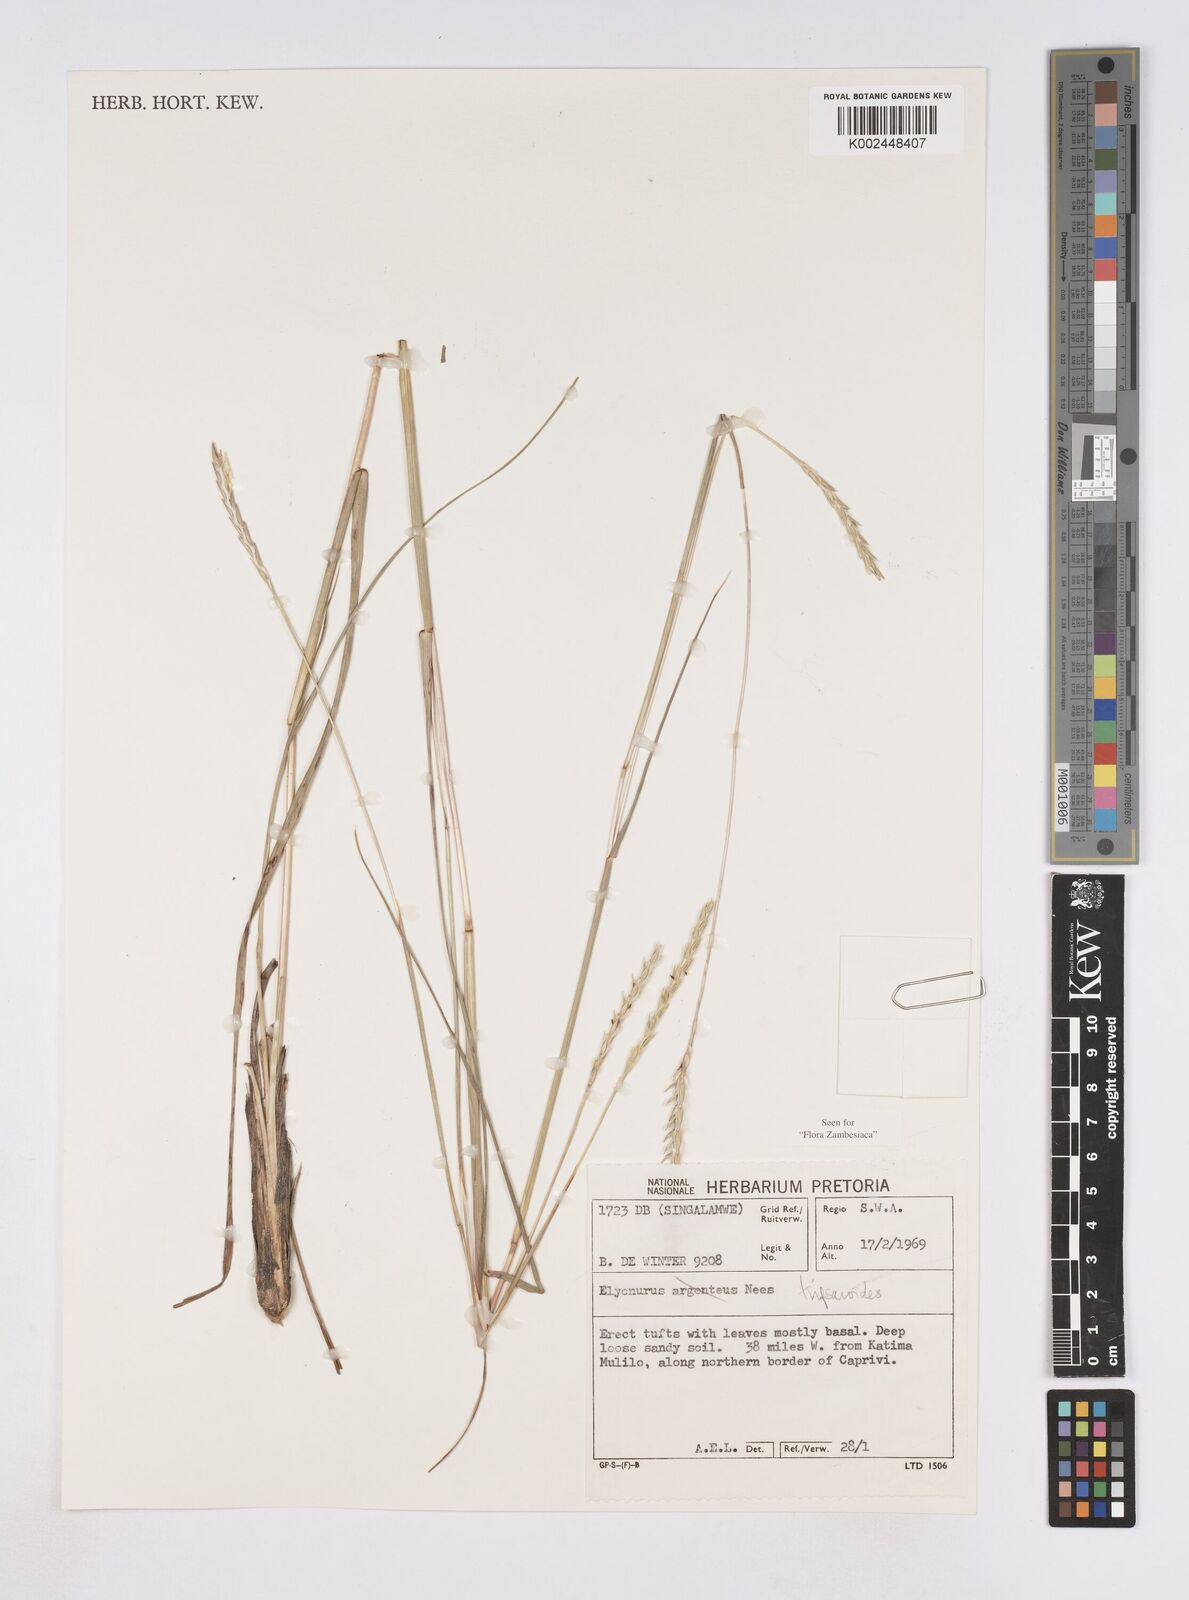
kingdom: Plantae
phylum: Tracheophyta
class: Liliopsida
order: Poales
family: Poaceae
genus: Elionurus
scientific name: Elionurus tripsacoides
